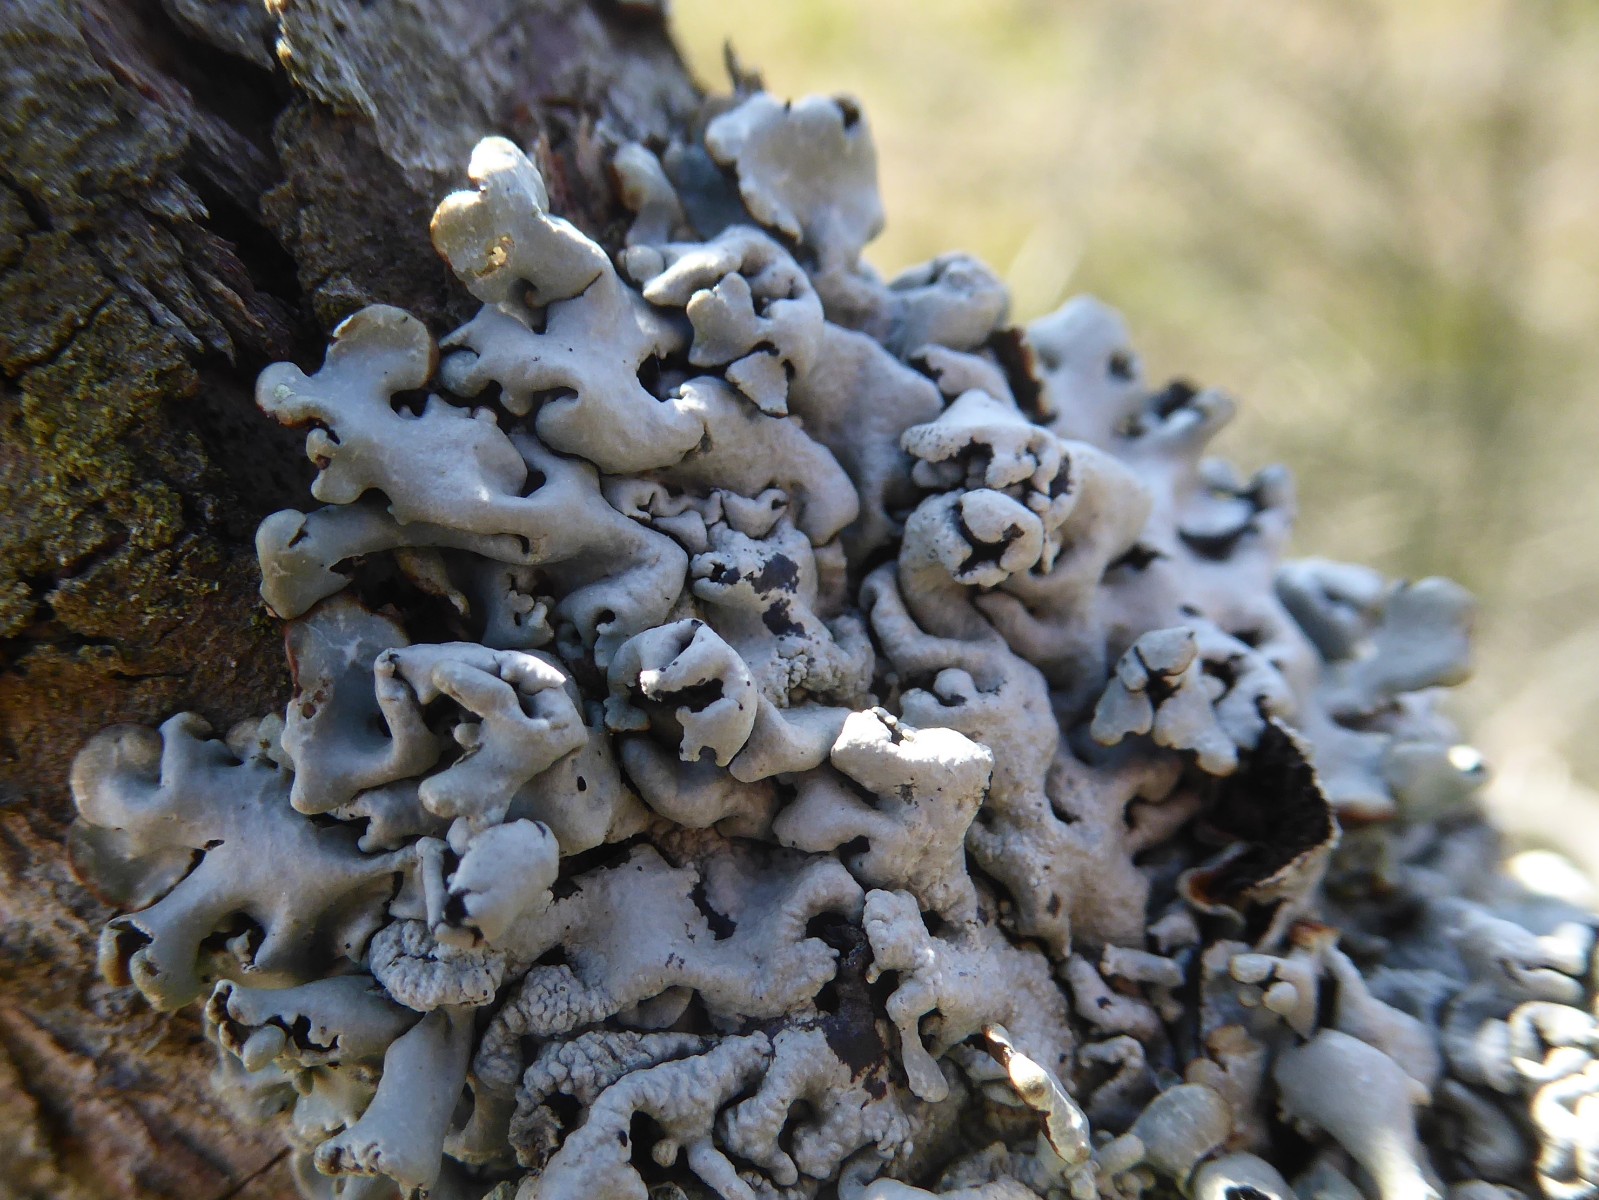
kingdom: Fungi
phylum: Ascomycota
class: Lecanoromycetes
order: Lecanorales
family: Parmeliaceae
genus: Hypogymnia
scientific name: Hypogymnia physodes
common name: almindelig kvistlav
